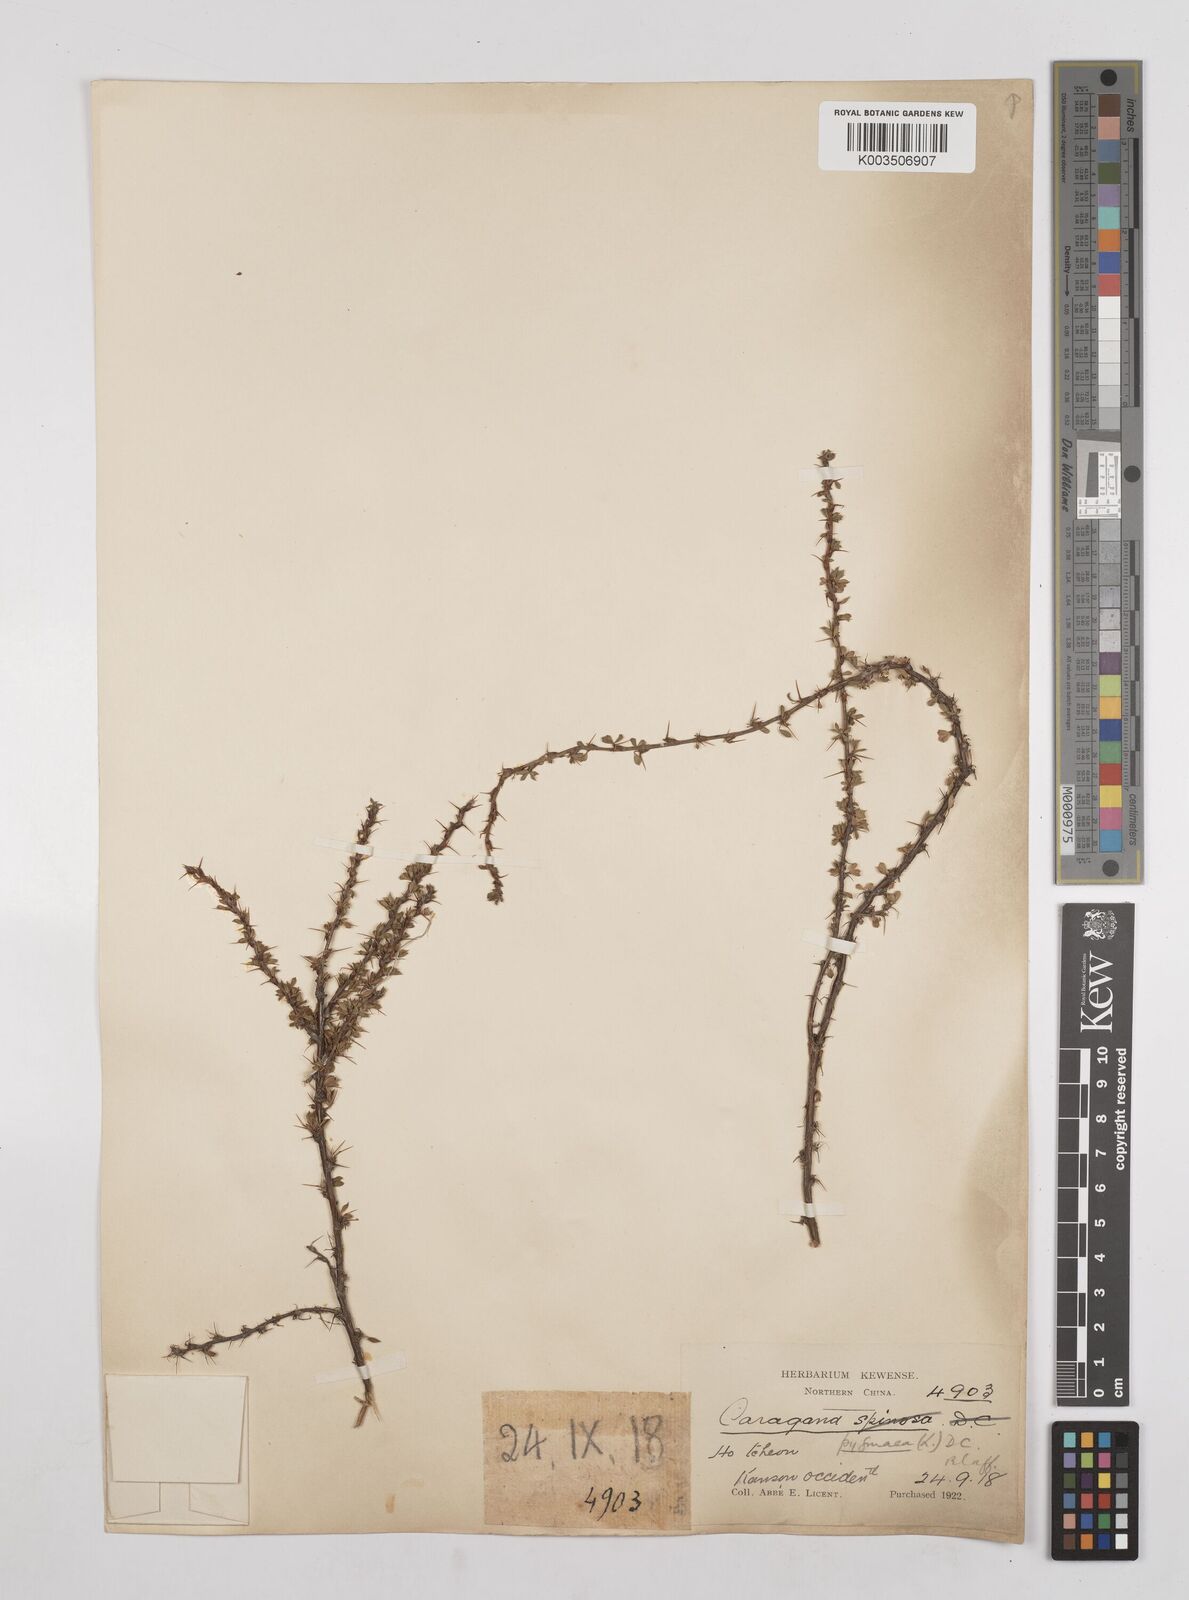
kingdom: Plantae
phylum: Tracheophyta
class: Magnoliopsida
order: Fabales
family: Fabaceae
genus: Caragana
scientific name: Caragana pygmaea
